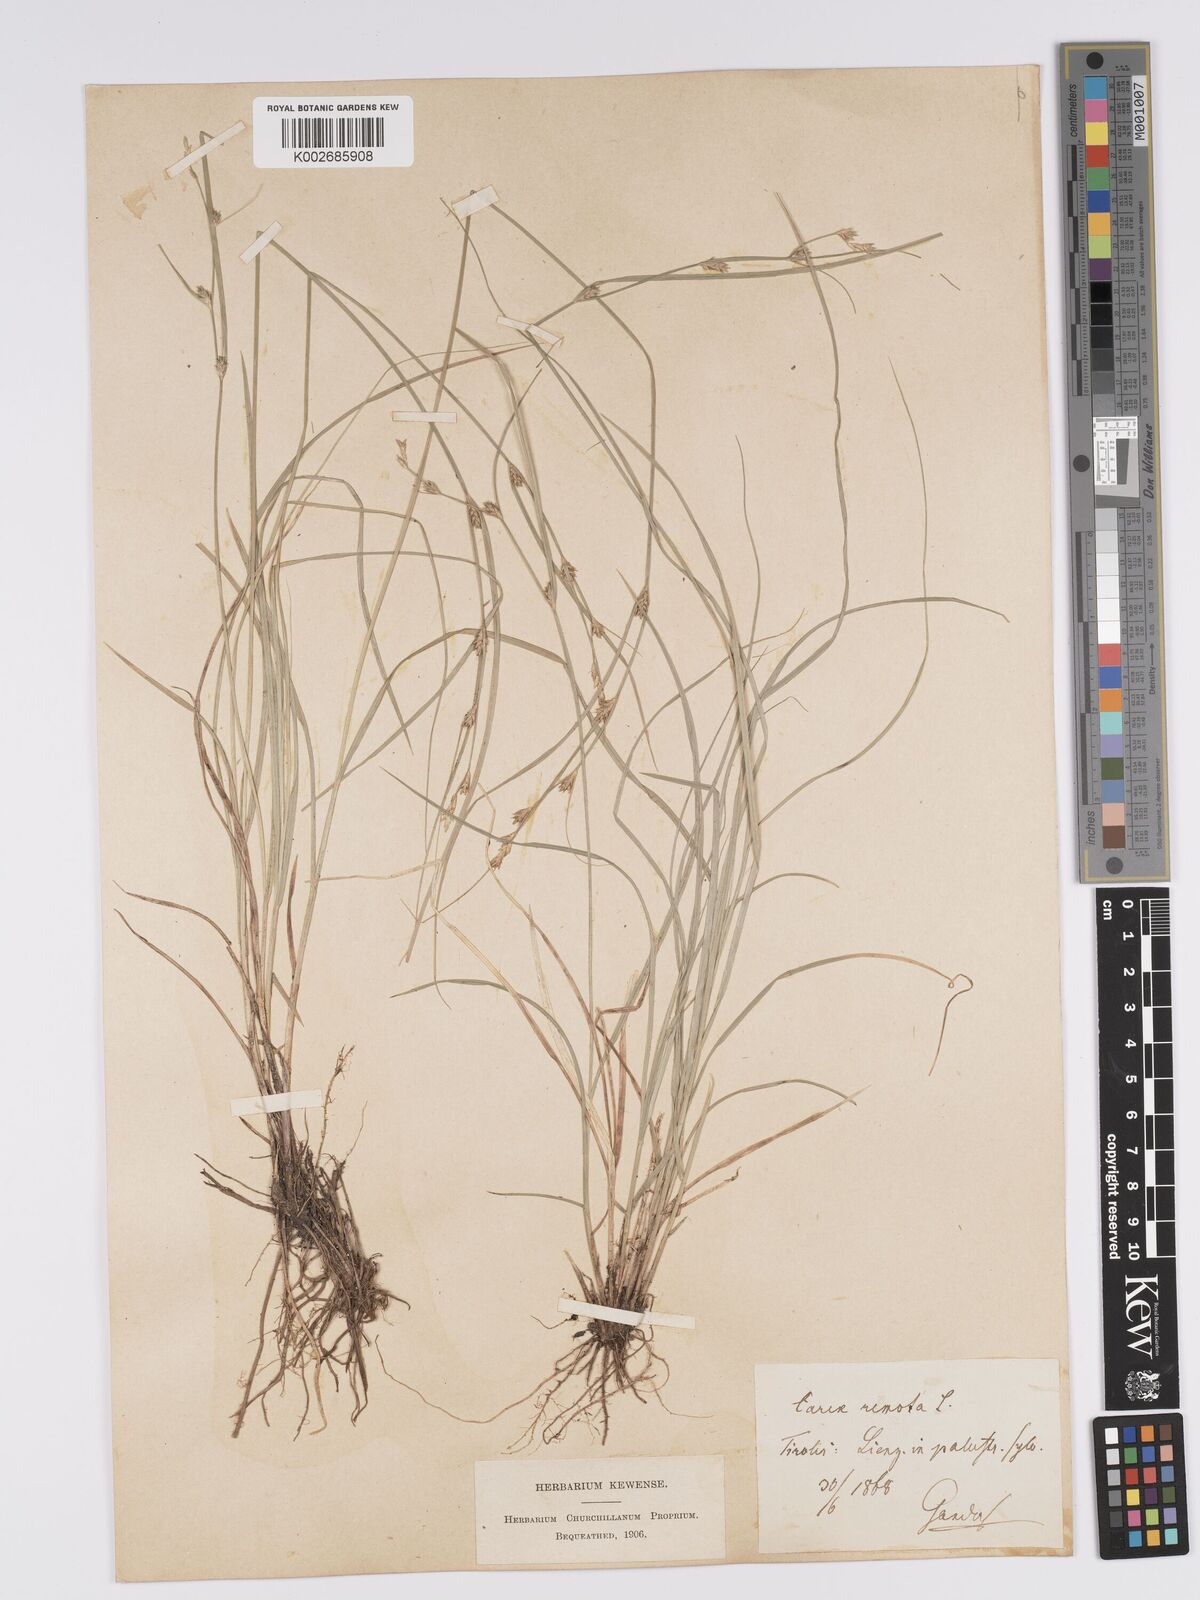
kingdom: Plantae
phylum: Tracheophyta
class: Liliopsida
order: Poales
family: Cyperaceae
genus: Carex
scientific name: Carex remota
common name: Remote sedge
